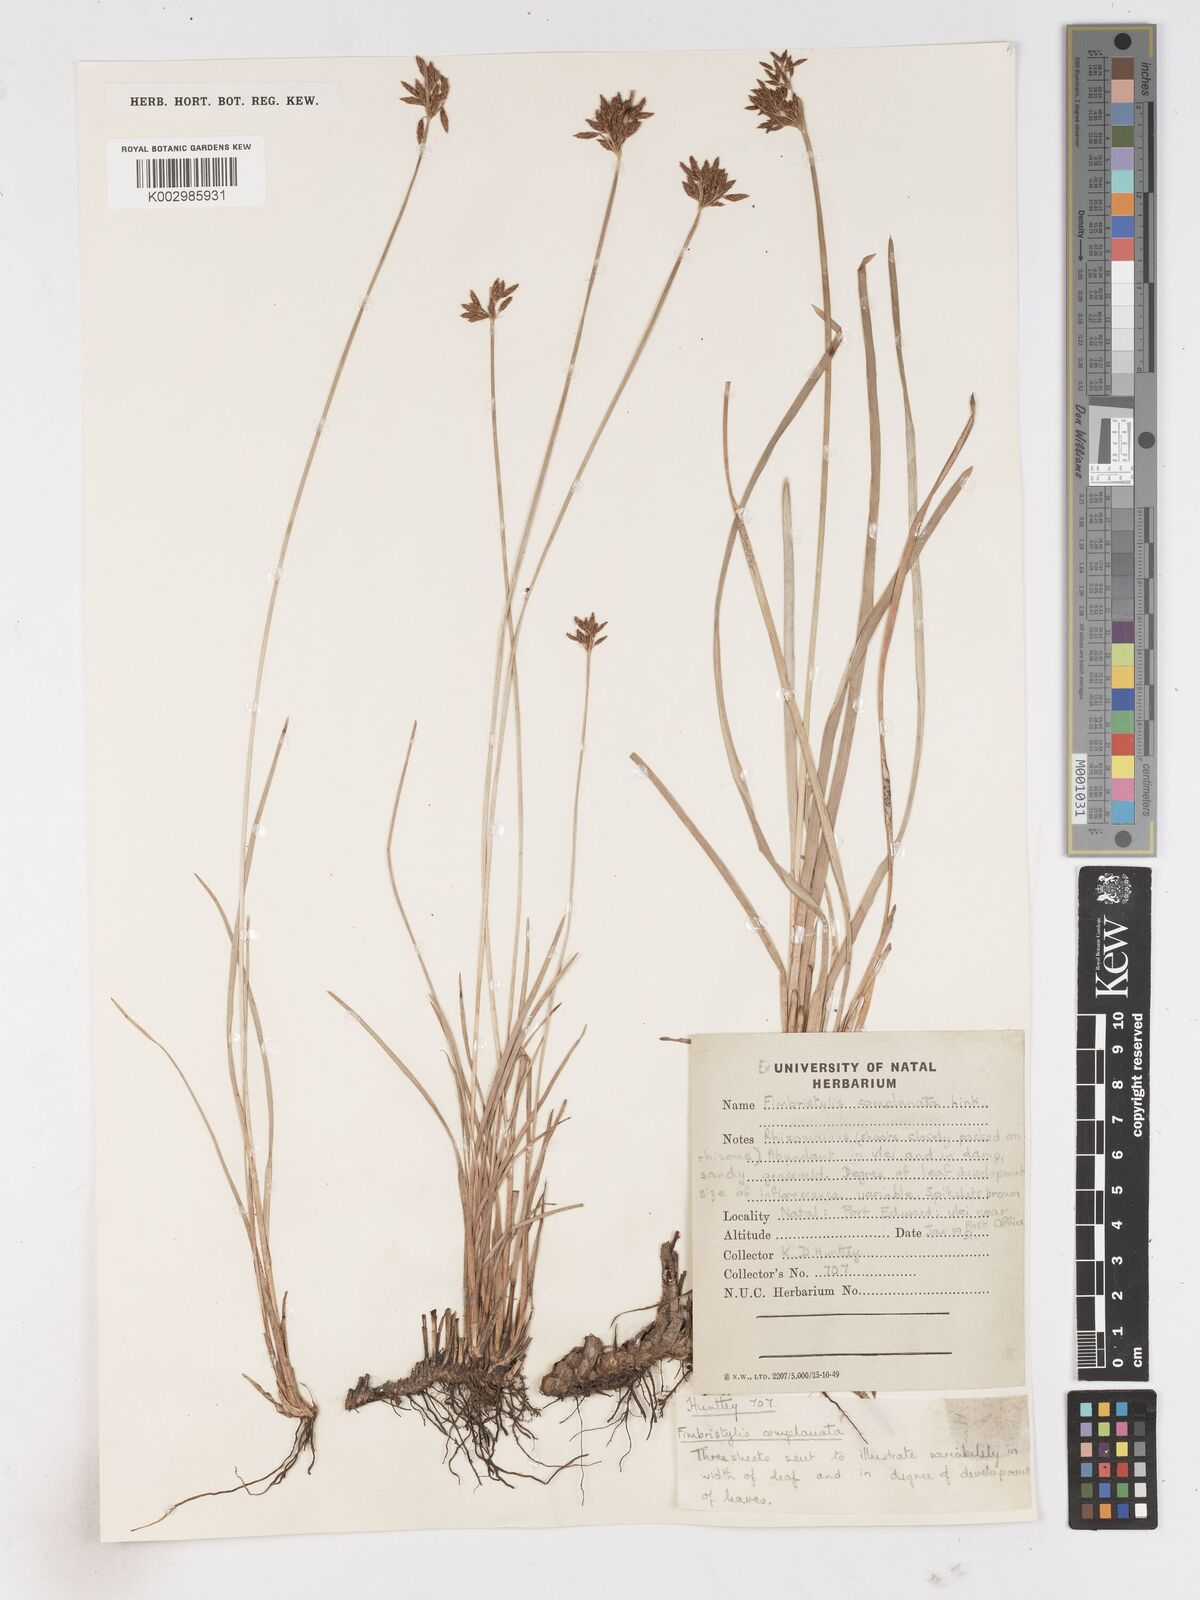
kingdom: Plantae
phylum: Tracheophyta
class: Liliopsida
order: Poales
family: Cyperaceae
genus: Fimbristylis
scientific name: Fimbristylis complanata
